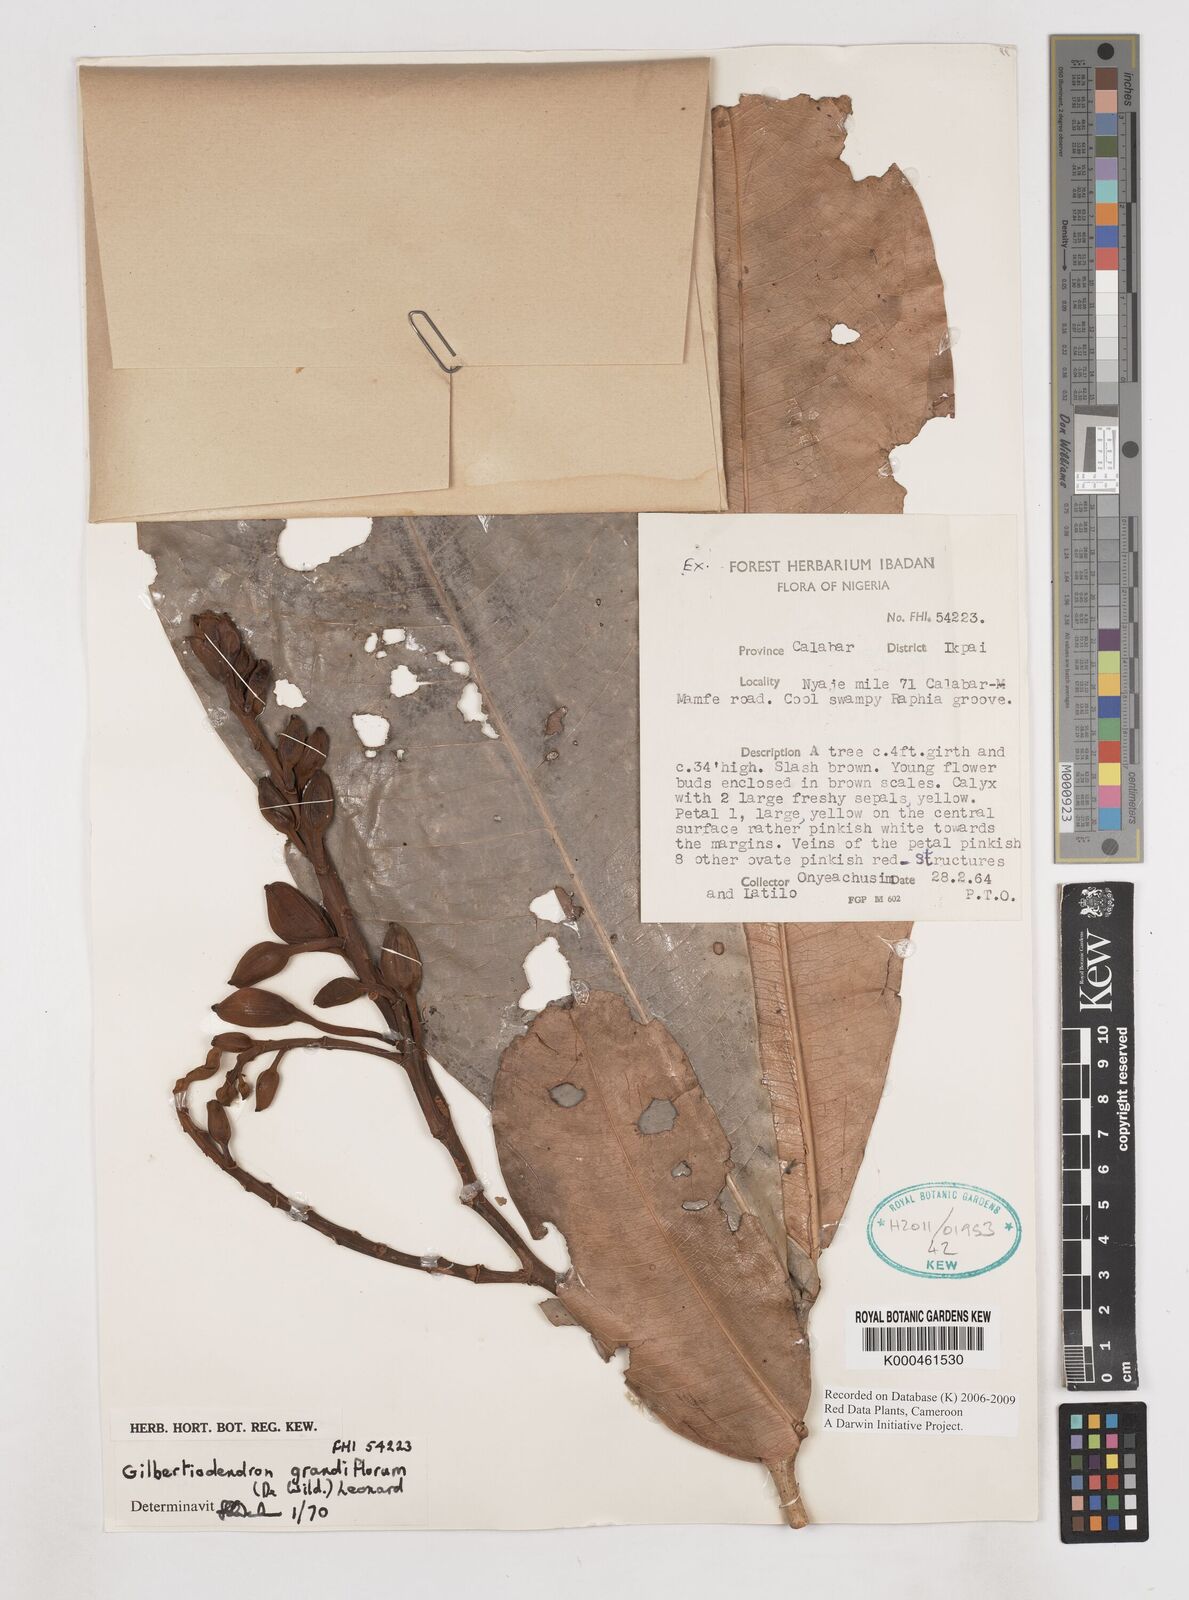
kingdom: Plantae
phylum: Tracheophyta
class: Magnoliopsida
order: Fabales
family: Fabaceae
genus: Gilbertiodendron
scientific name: Gilbertiodendron grandiflorum
